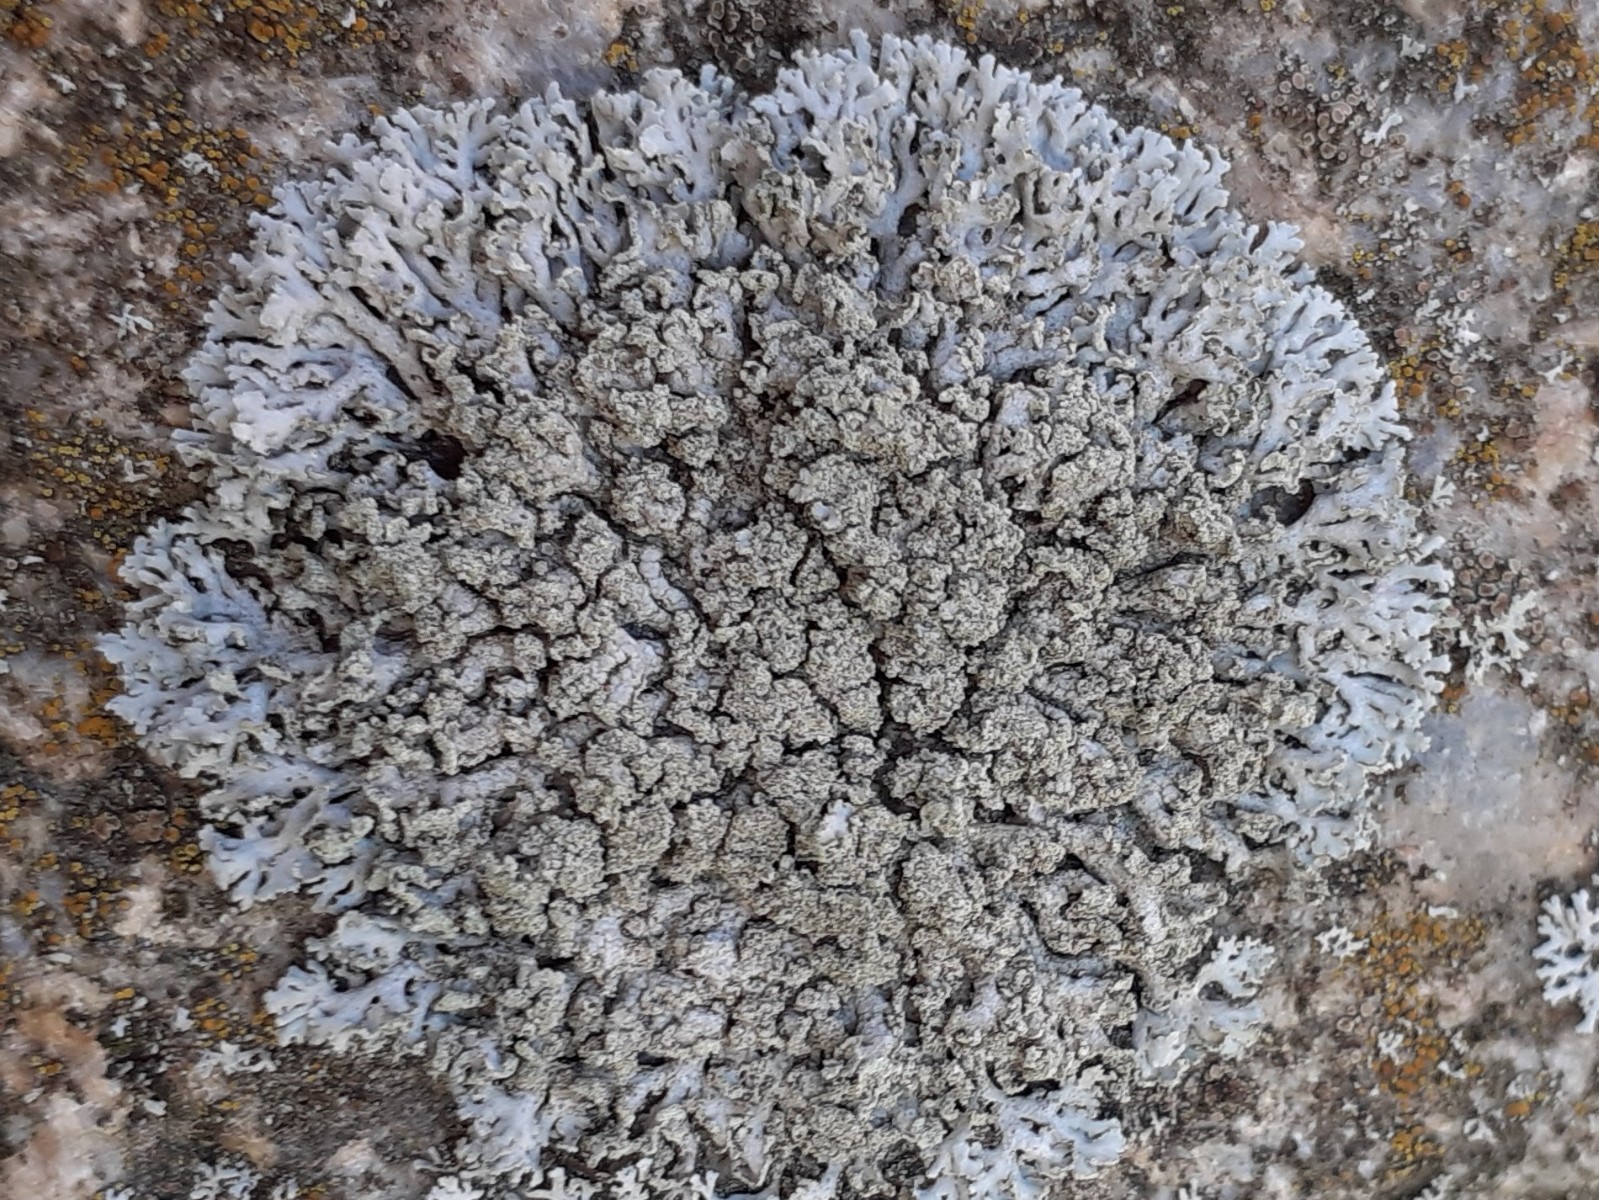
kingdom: Fungi
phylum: Ascomycota
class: Lecanoromycetes
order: Caliciales
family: Physciaceae
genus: Physcia
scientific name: Physcia dubia
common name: fuglestens-rosetlav
